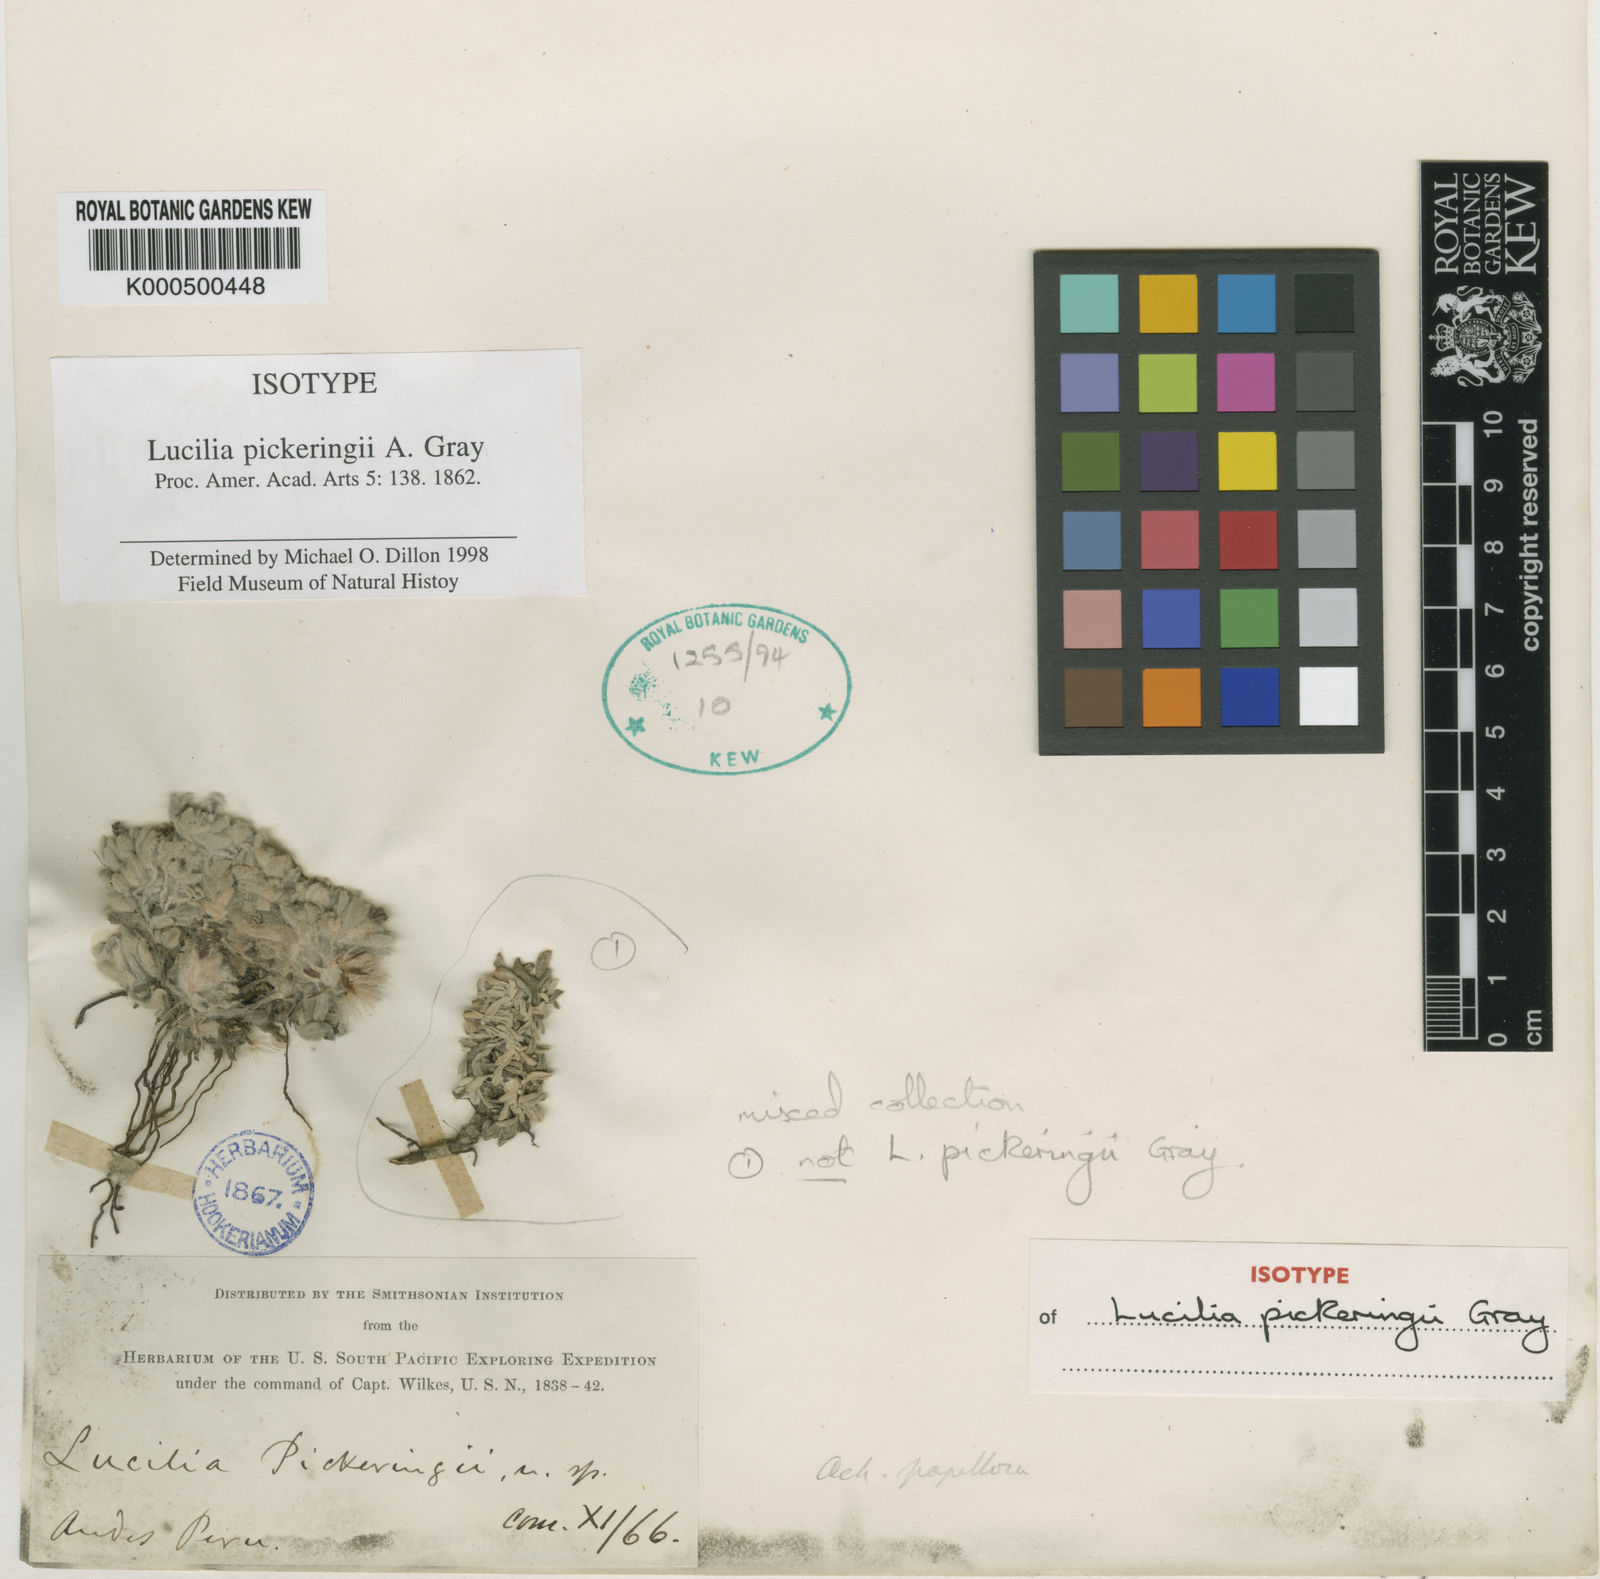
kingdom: Plantae
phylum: Tracheophyta
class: Magnoliopsida
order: Asterales
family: Asteraceae
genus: Belloa
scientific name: Belloa
